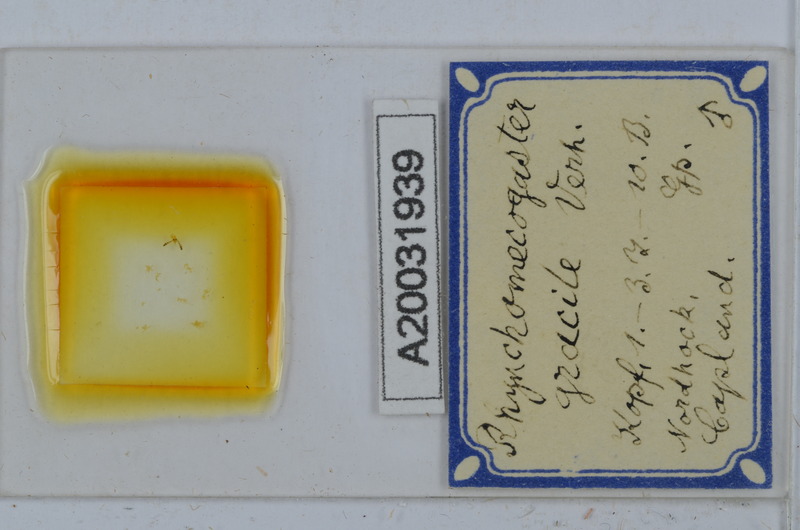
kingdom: Animalia
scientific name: Animalia
